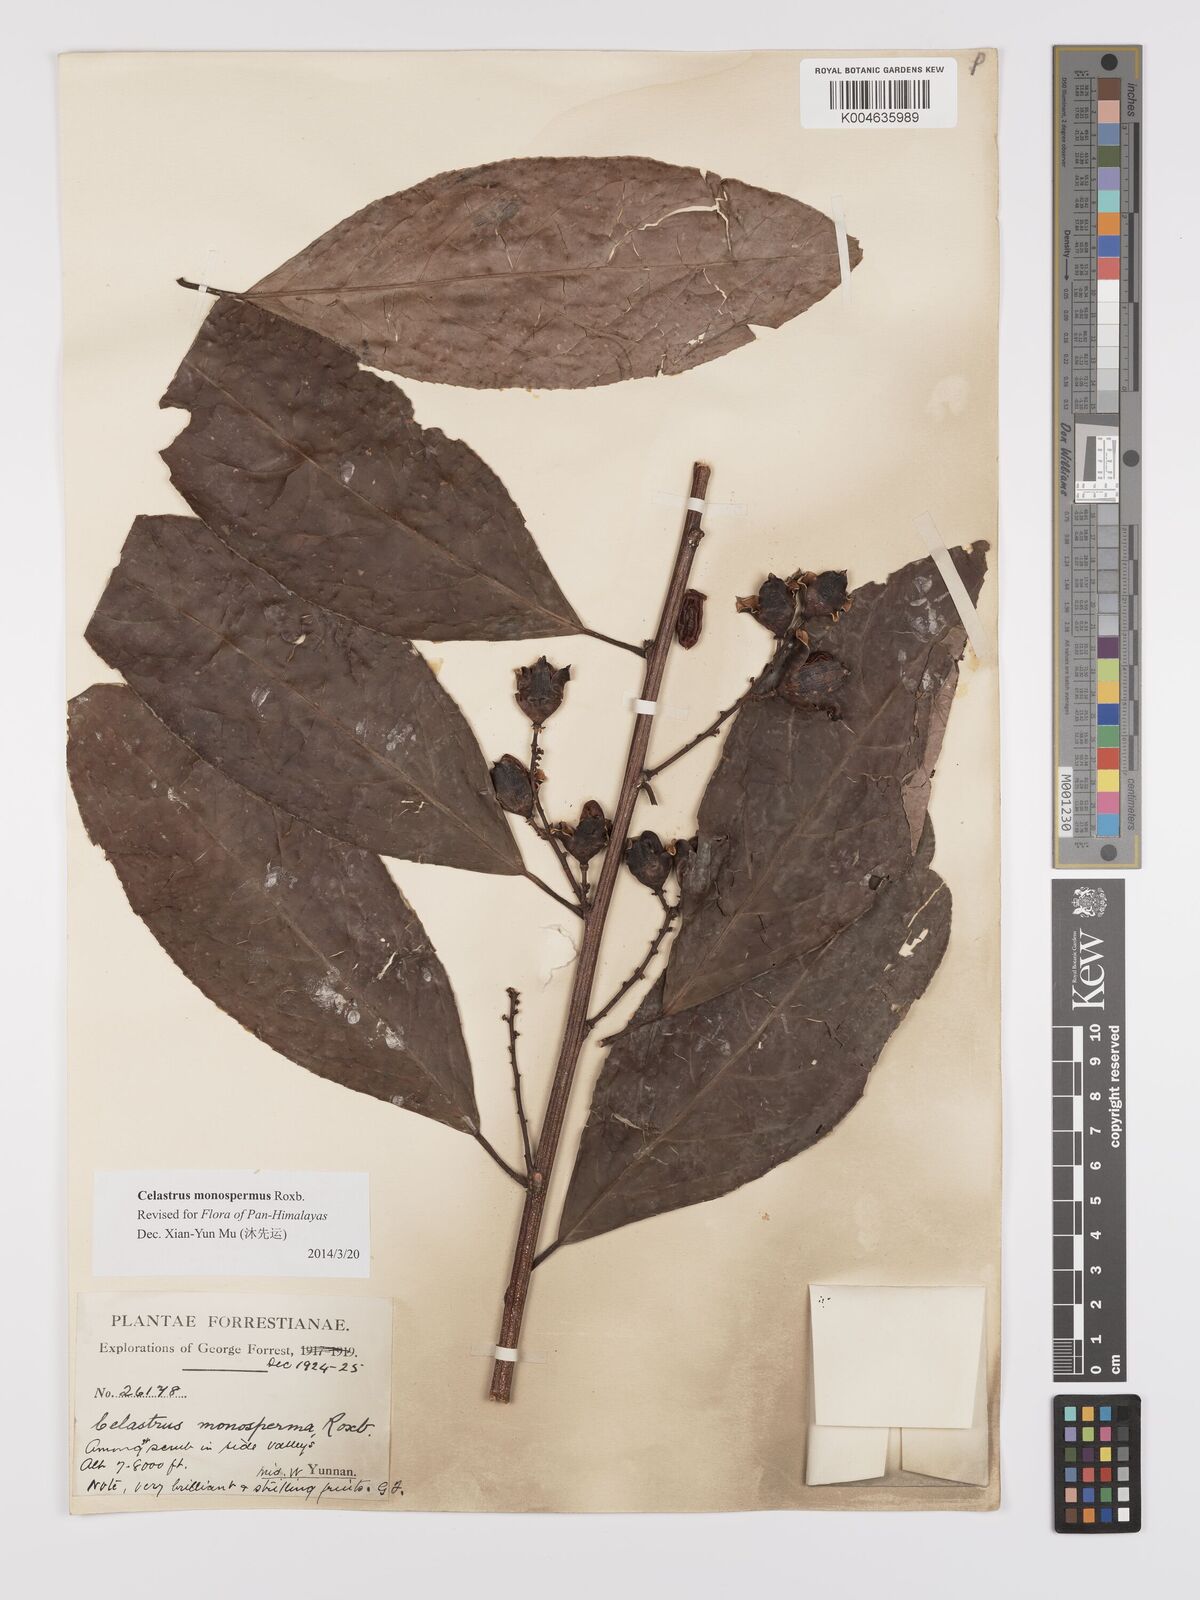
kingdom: Plantae
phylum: Tracheophyta
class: Magnoliopsida
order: Celastrales
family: Celastraceae
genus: Celastrus
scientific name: Celastrus monospermus
